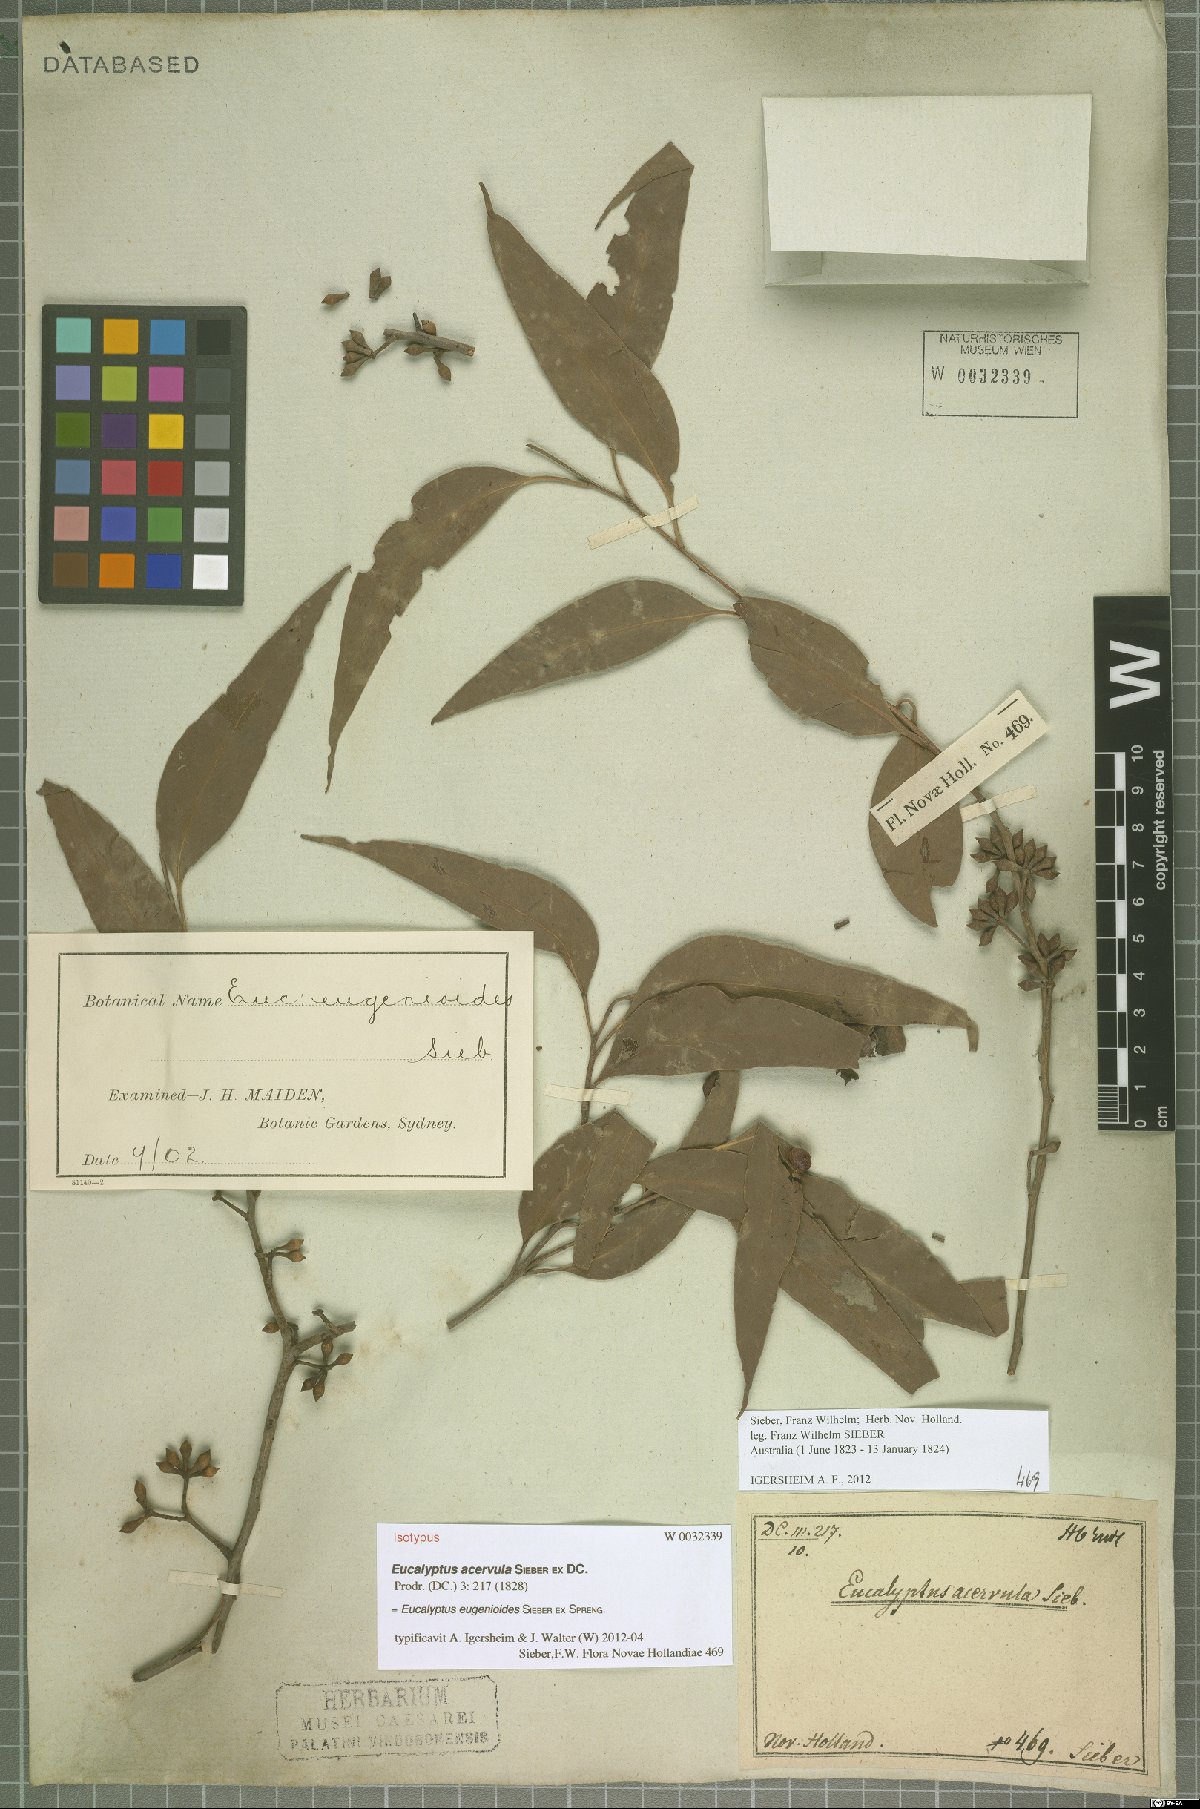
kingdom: Plantae
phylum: Tracheophyta
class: Magnoliopsida
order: Myrtales
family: Myrtaceae
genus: Eucalyptus
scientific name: Eucalyptus eugenioides
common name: Narrow-leaved-stringybark
